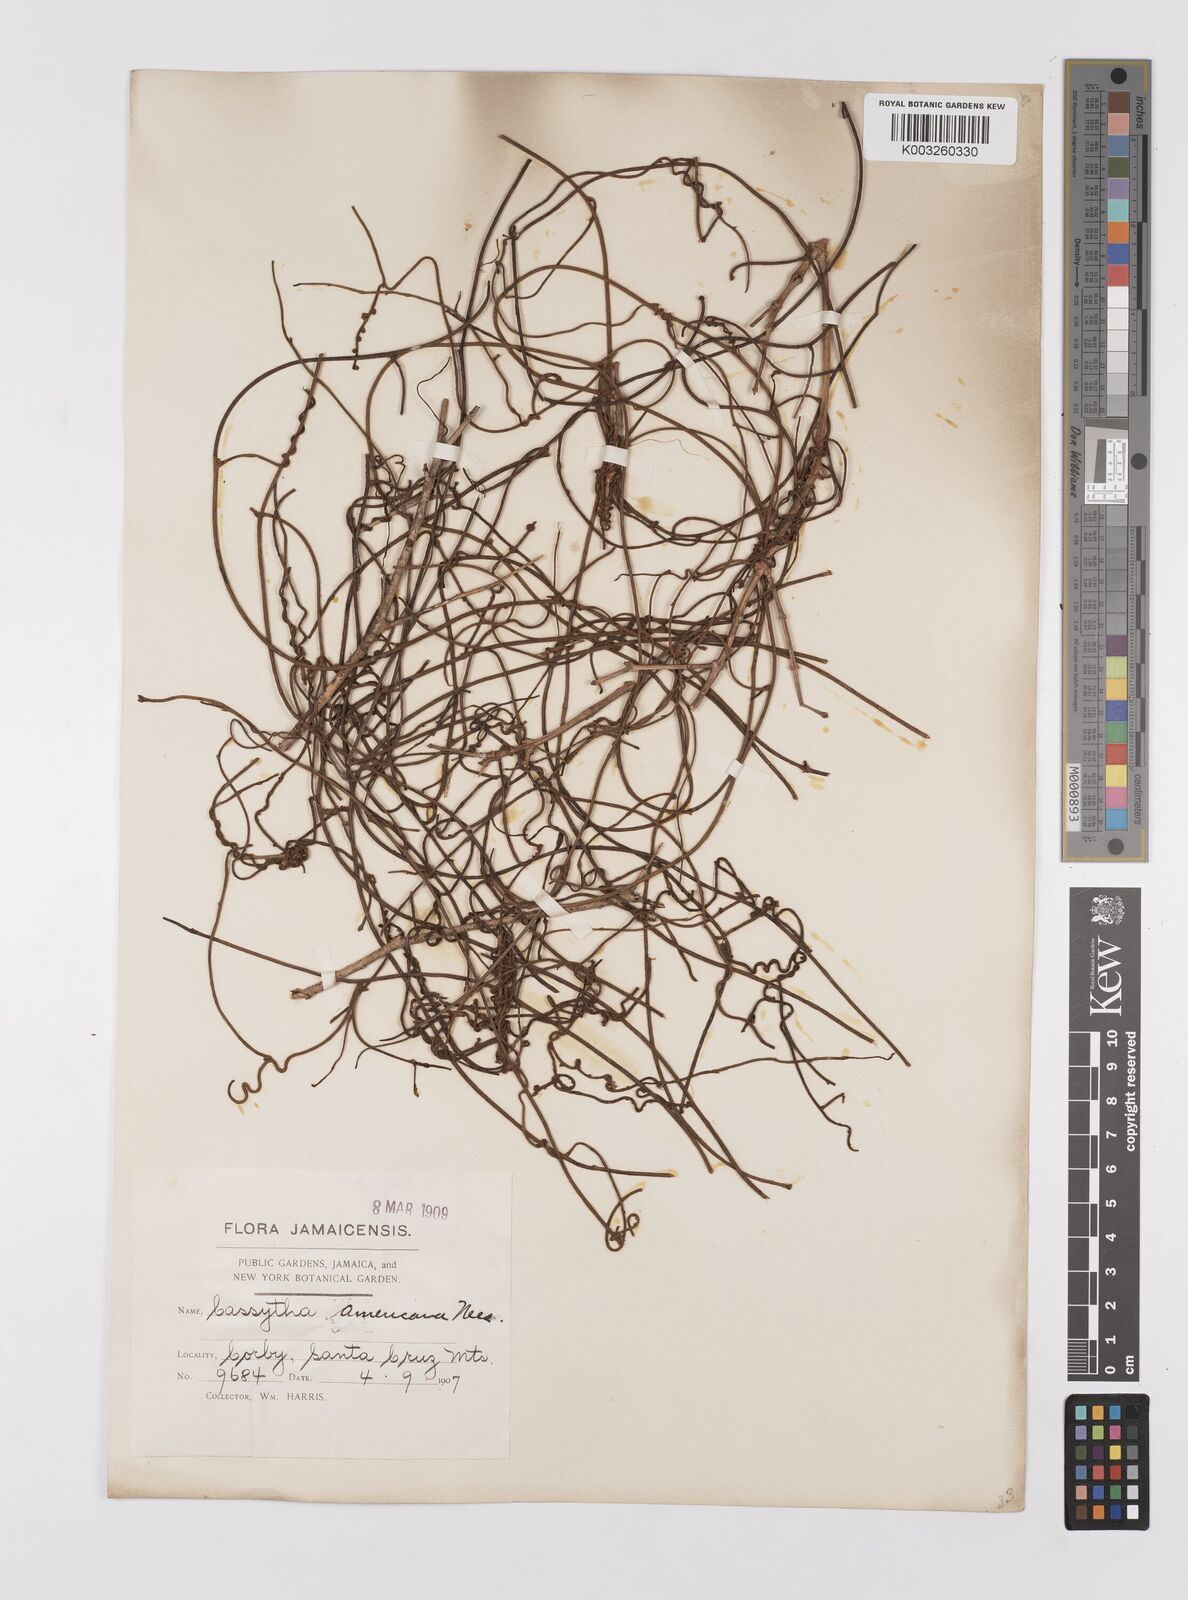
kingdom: Plantae
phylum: Tracheophyta
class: Magnoliopsida
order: Laurales
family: Lauraceae
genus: Cassytha
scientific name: Cassytha filiformis
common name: Dodder-laurel
